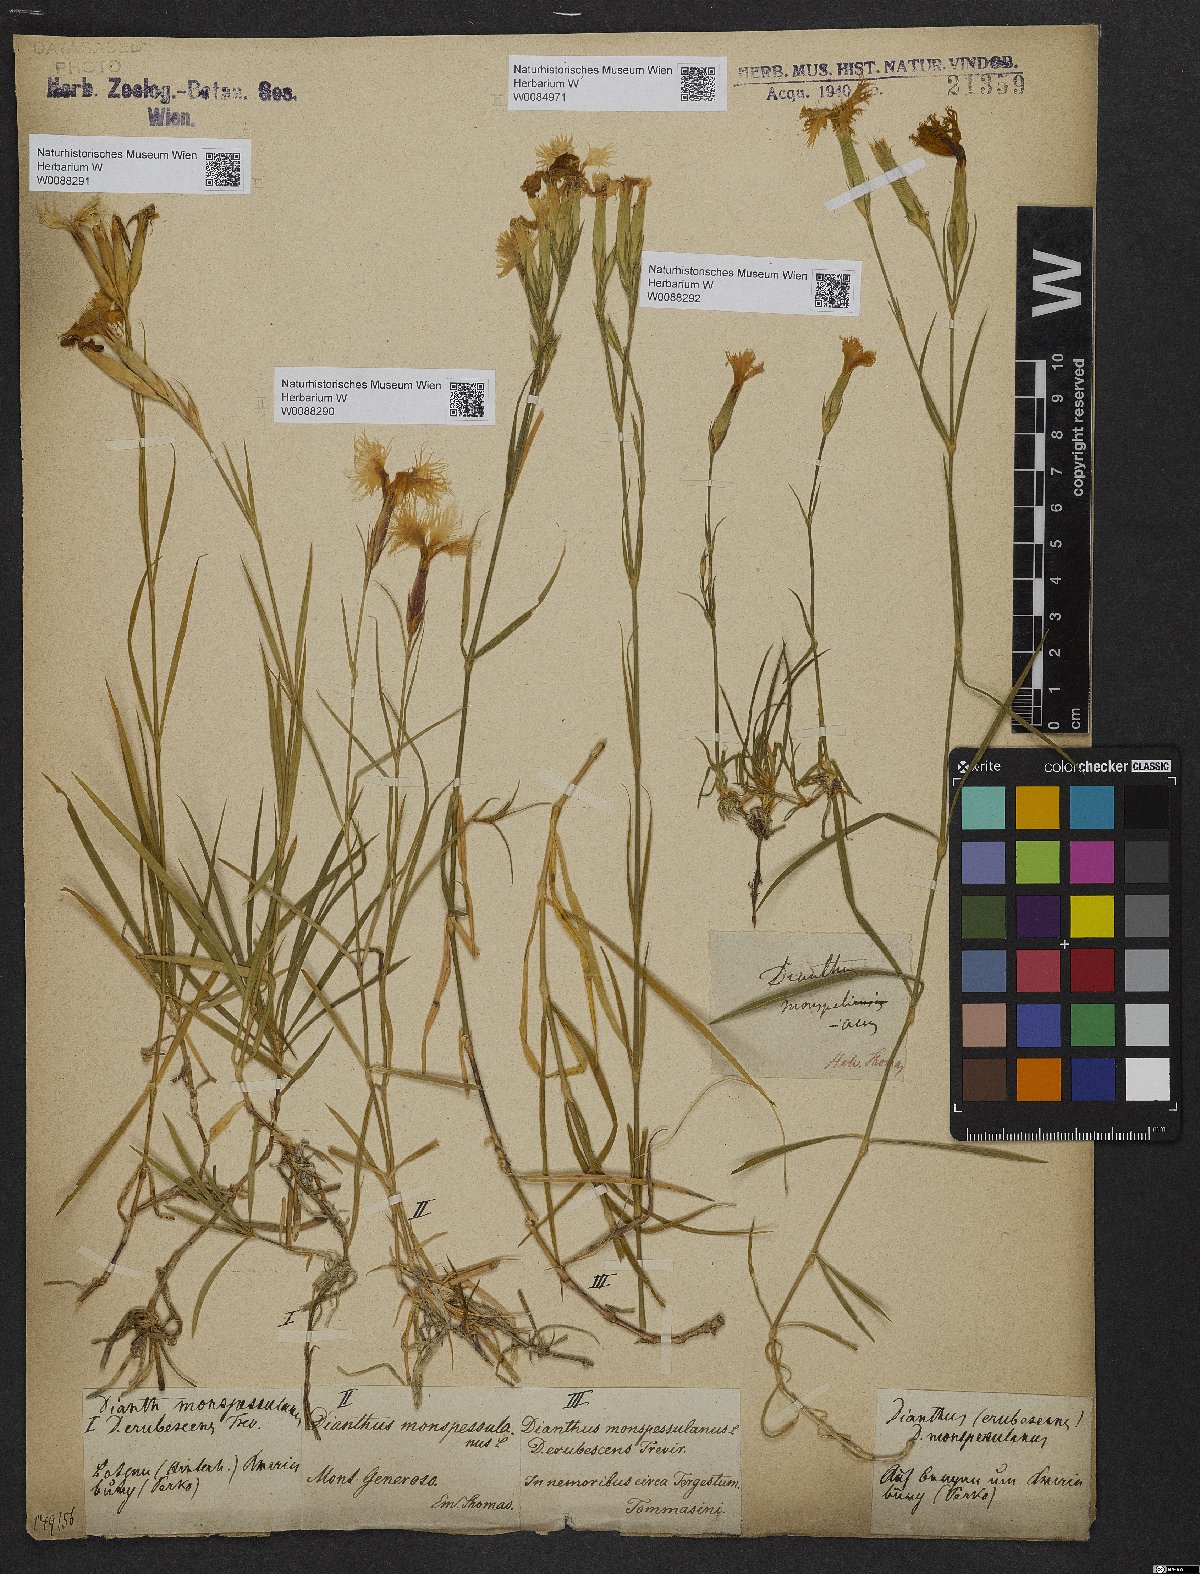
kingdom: Plantae
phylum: Tracheophyta
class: Magnoliopsida
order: Caryophyllales
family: Caryophyllaceae
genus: Dianthus
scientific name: Dianthus hyssopifolius
